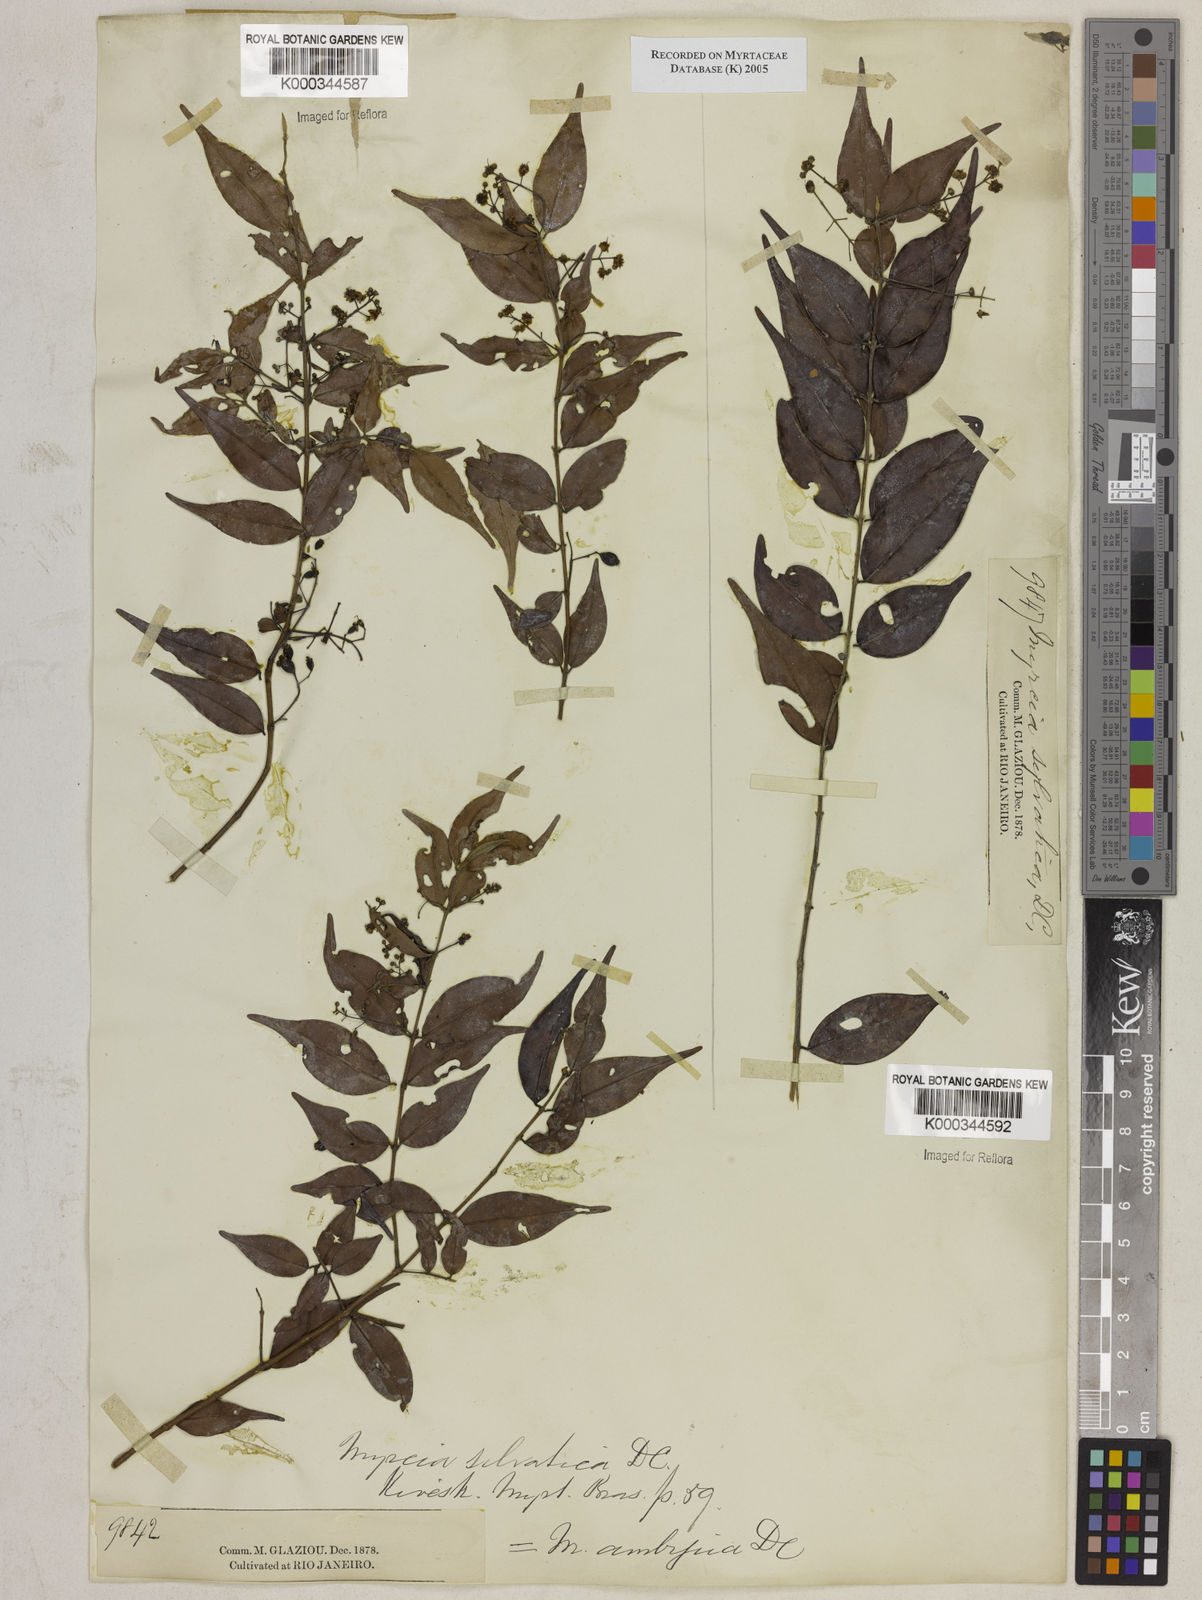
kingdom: Plantae
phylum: Tracheophyta
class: Magnoliopsida
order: Myrtales
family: Myrtaceae
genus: Myrcia
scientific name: Myrcia sylvatica
